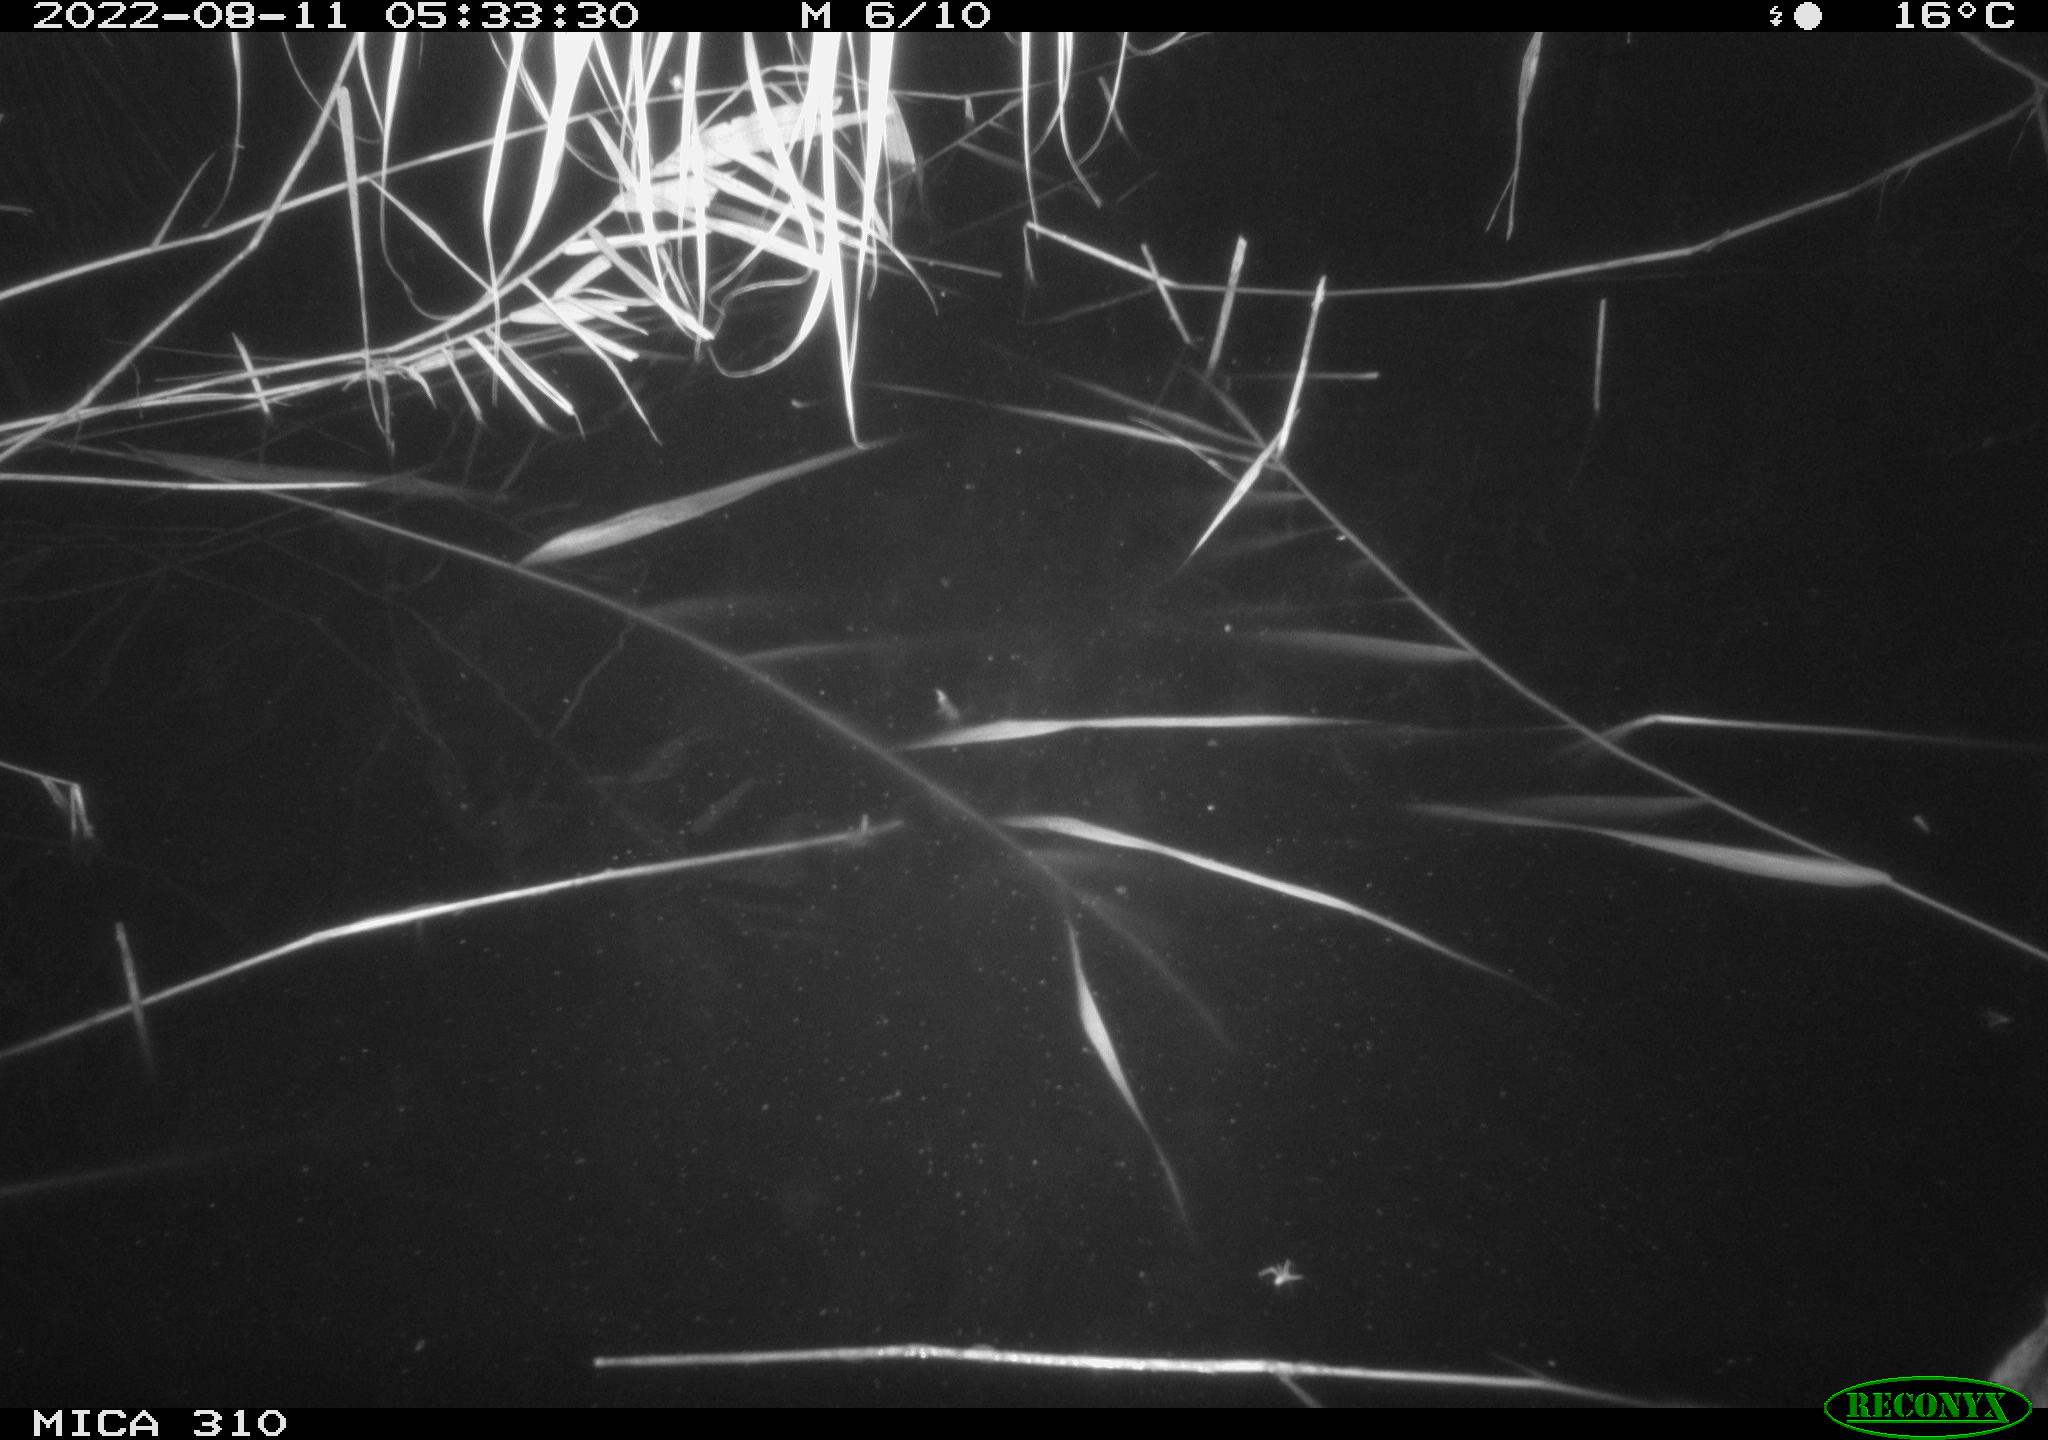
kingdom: Animalia
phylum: Chordata
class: Aves
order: Anseriformes
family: Anatidae
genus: Anas
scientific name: Anas platyrhynchos
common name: Mallard
